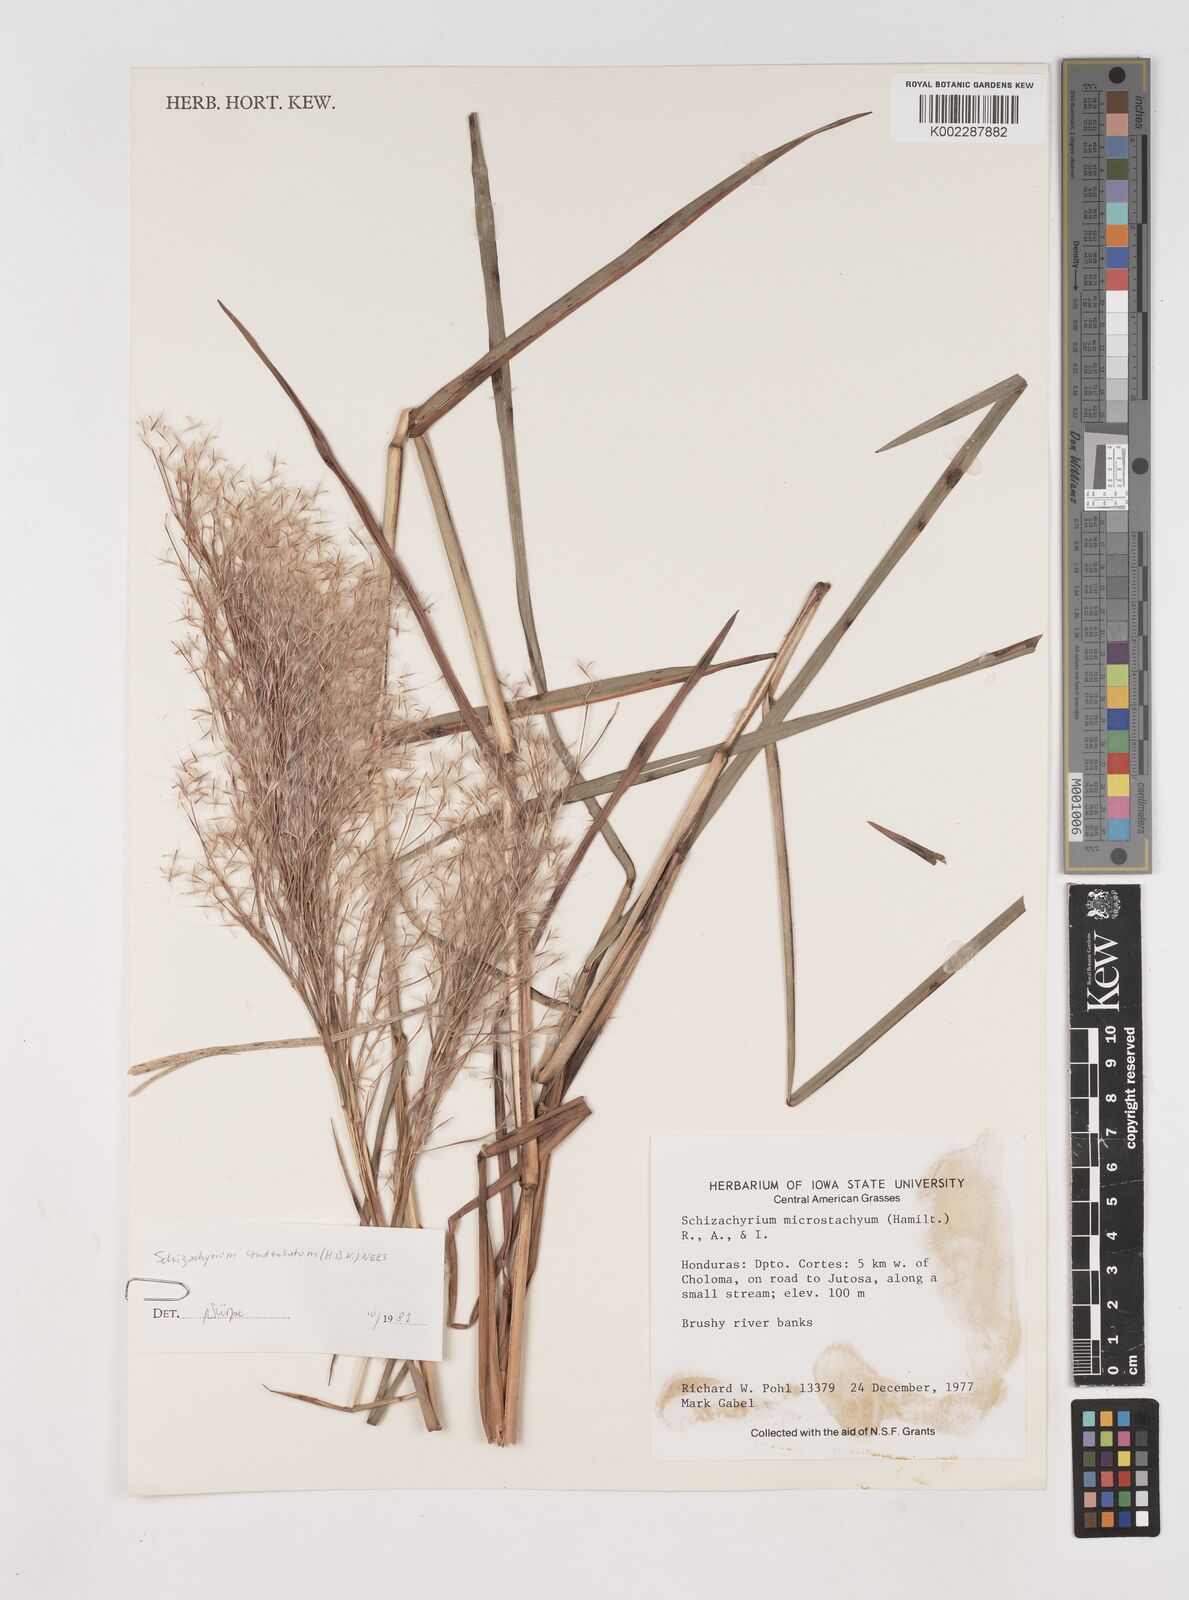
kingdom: Plantae
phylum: Tracheophyta
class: Liliopsida
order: Poales
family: Poaceae
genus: Schizachyrium
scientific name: Schizachyrium condensatum
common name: Bush beardgrass
